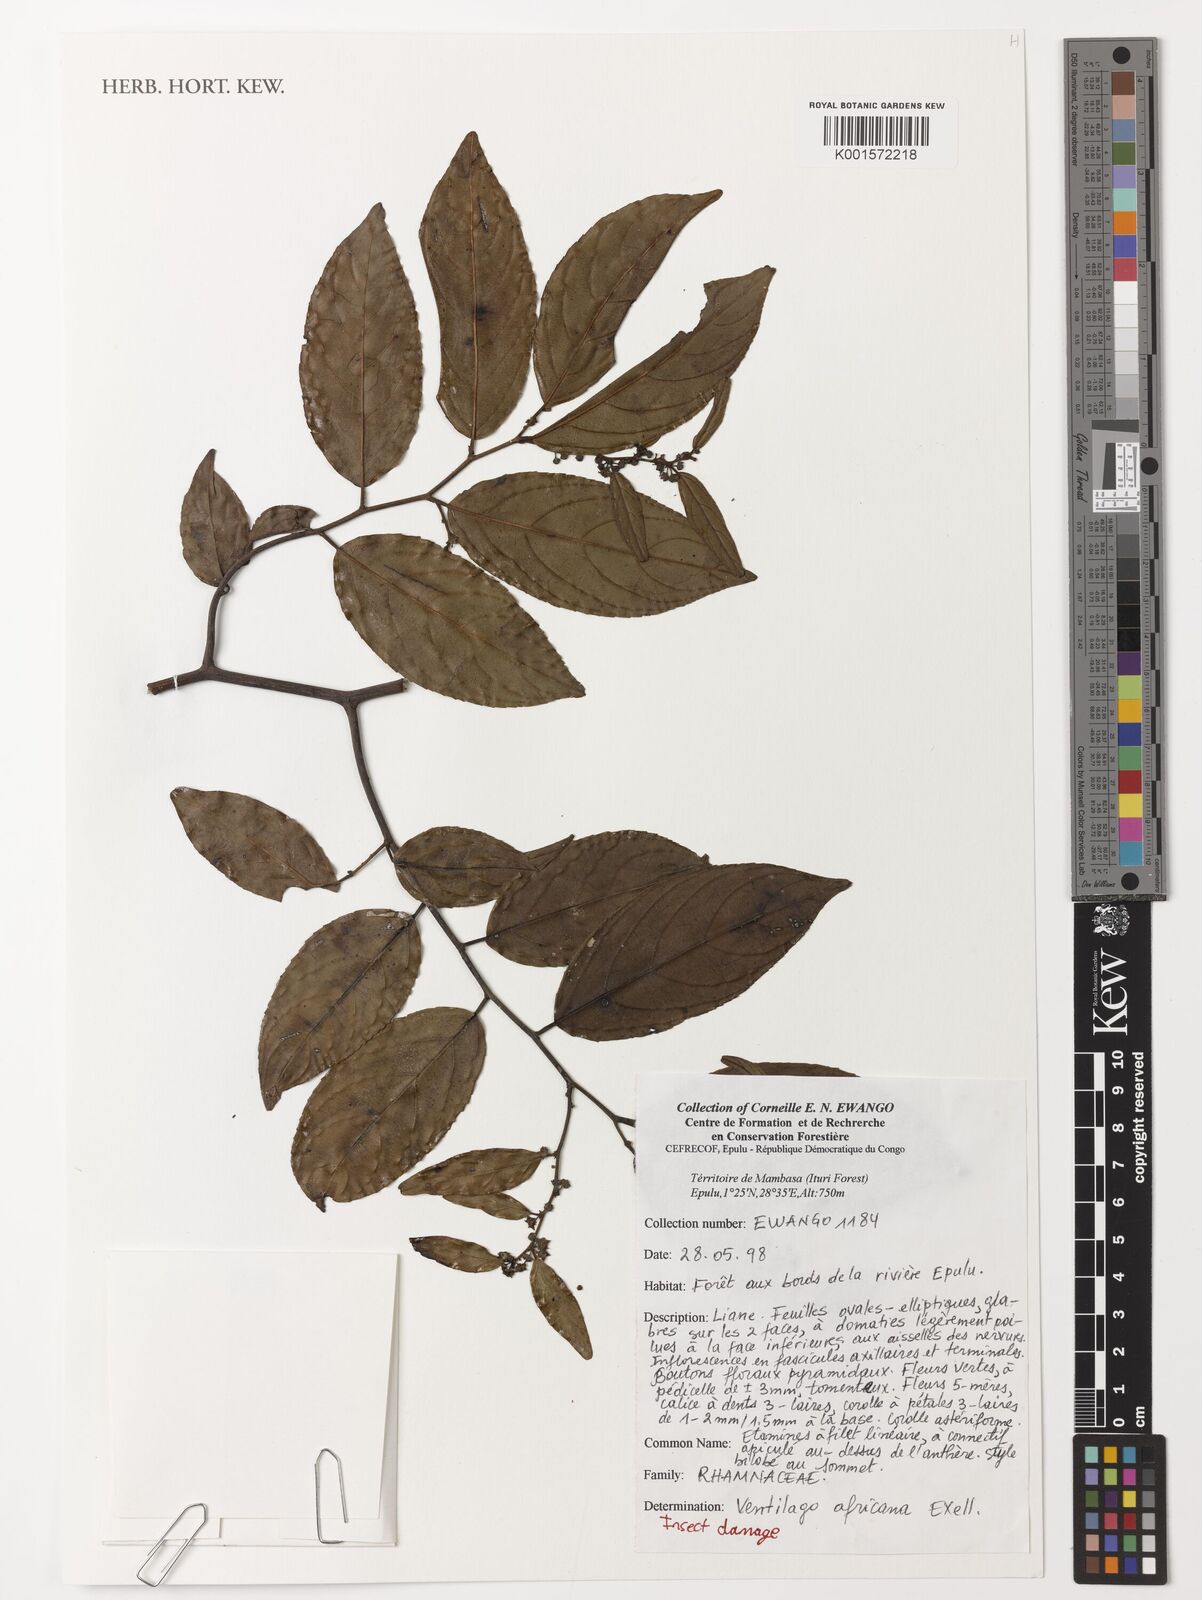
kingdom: Plantae
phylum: Tracheophyta
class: Magnoliopsida
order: Rosales
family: Rhamnaceae
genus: Ventilago
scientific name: Ventilago africana
